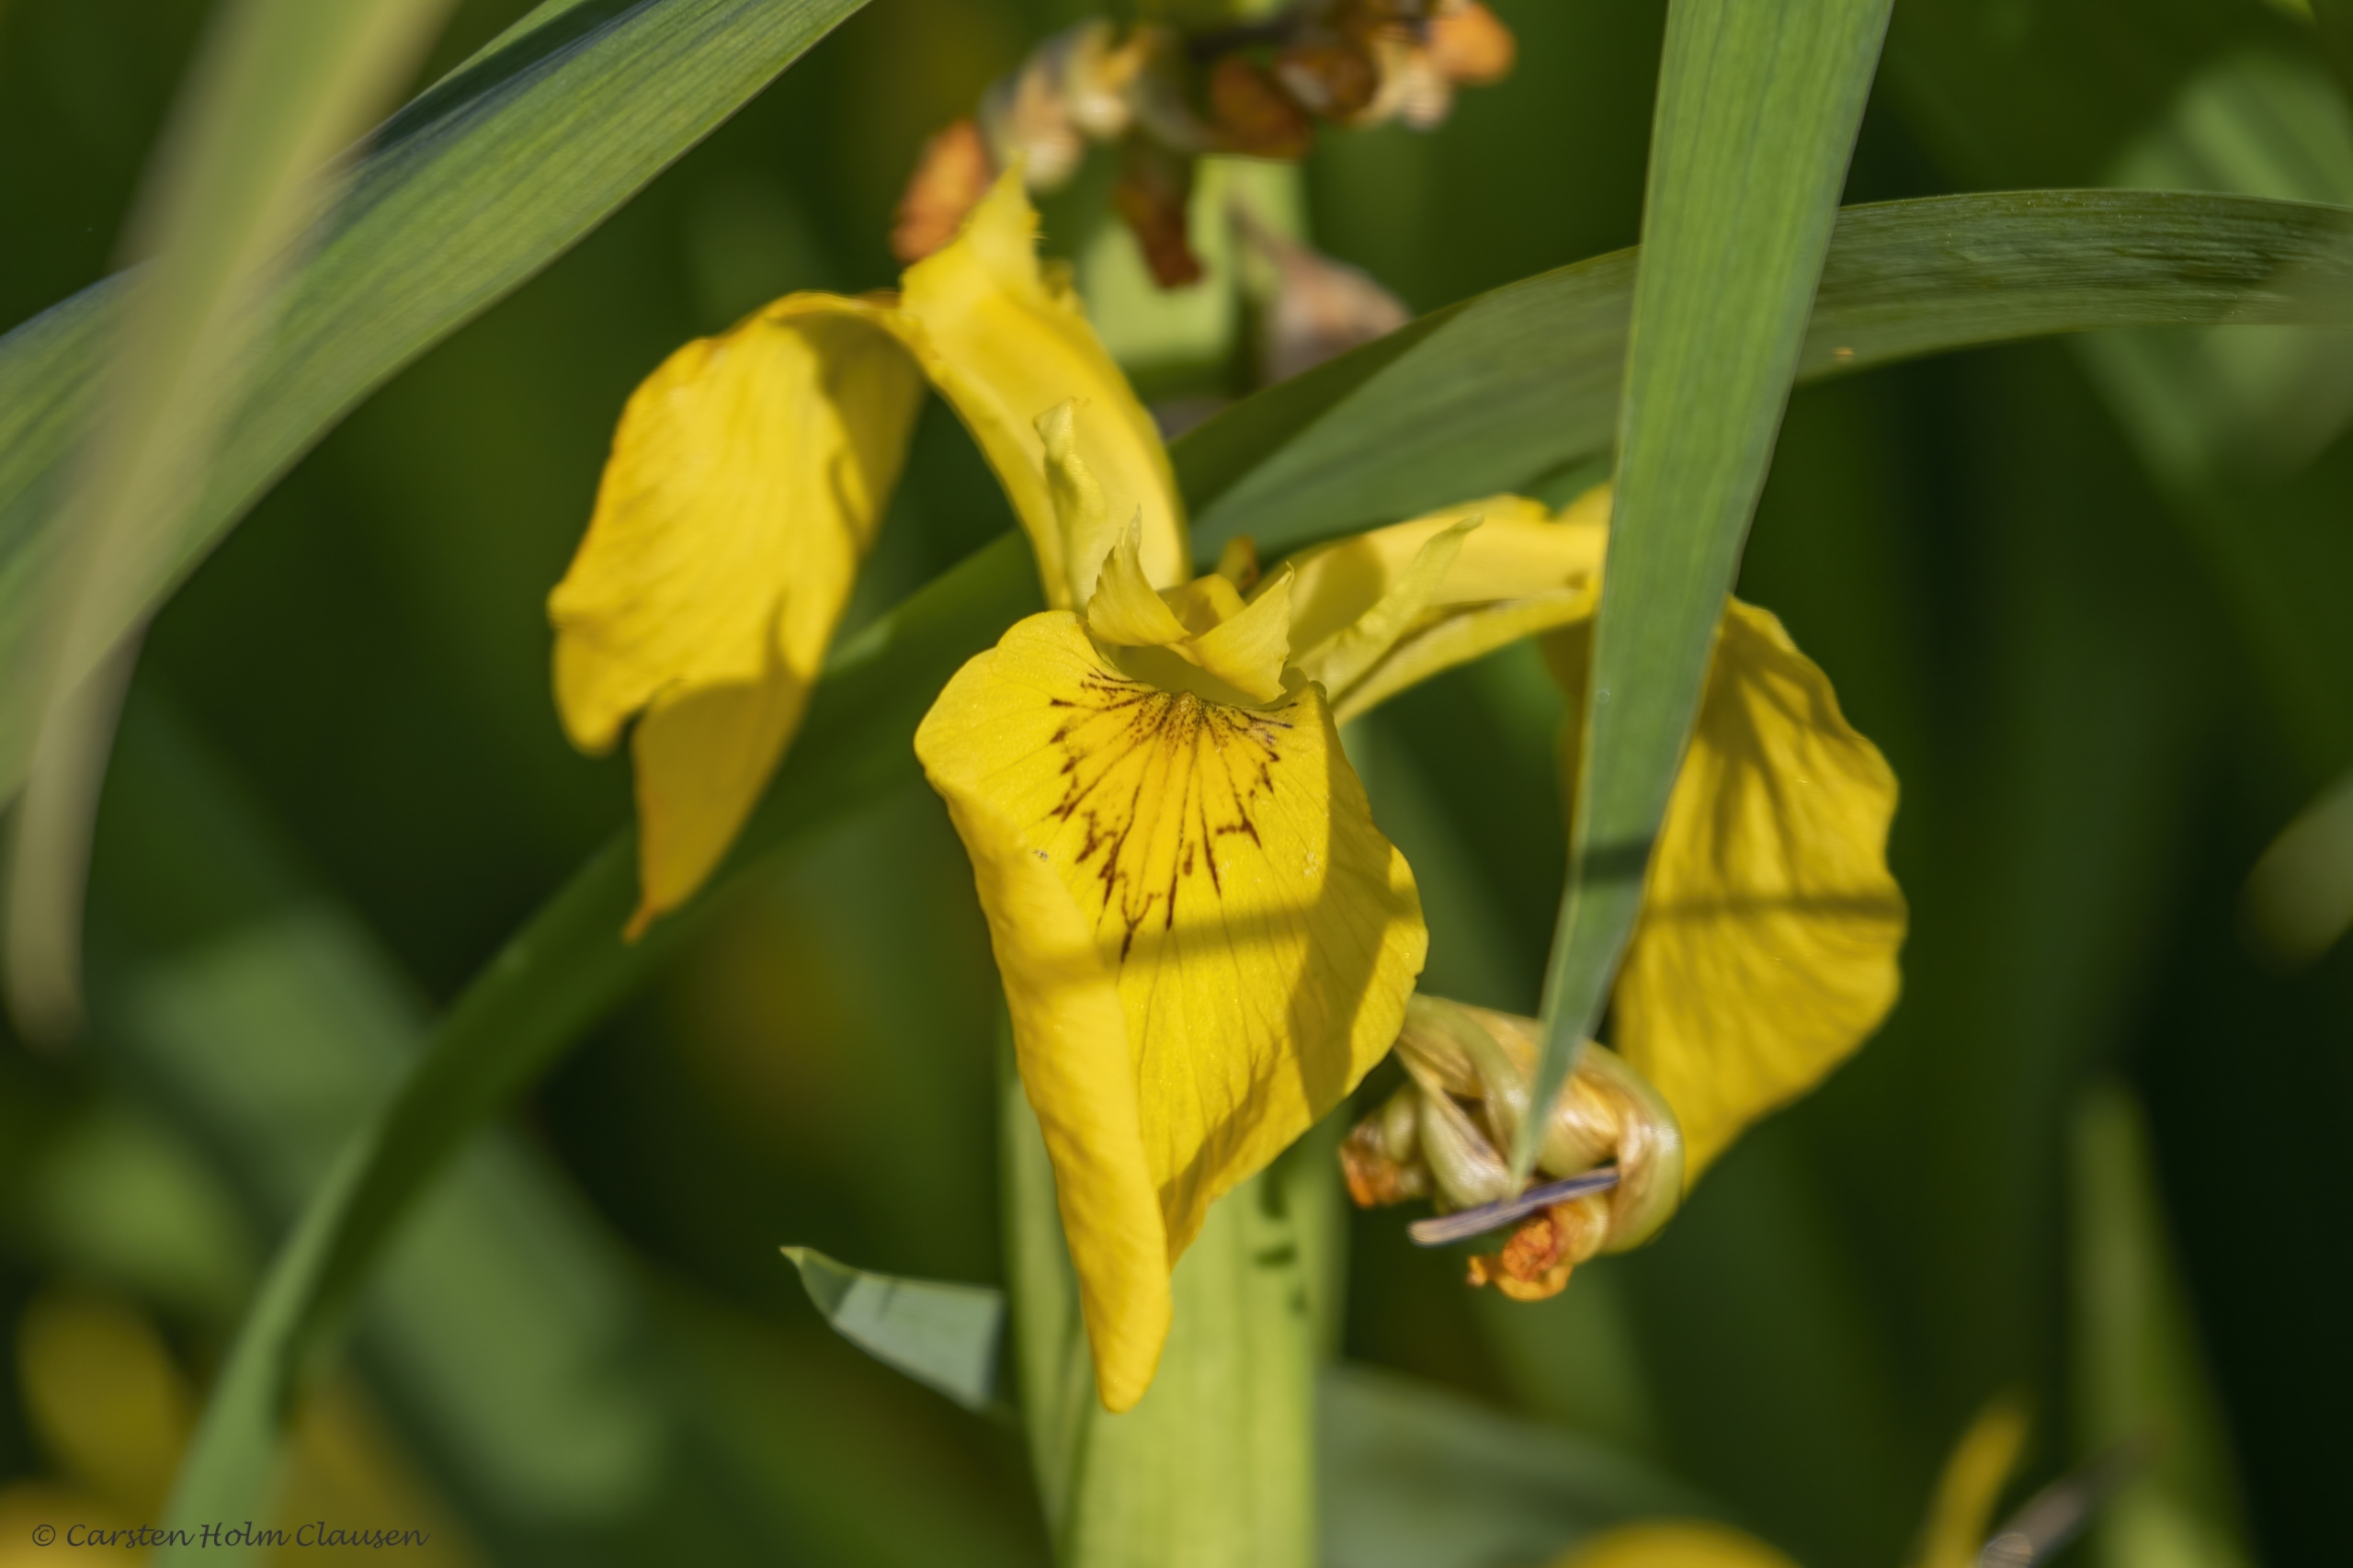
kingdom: Plantae
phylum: Tracheophyta
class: Liliopsida
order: Asparagales
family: Iridaceae
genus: Iris
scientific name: Iris pseudacorus
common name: Gul iris
